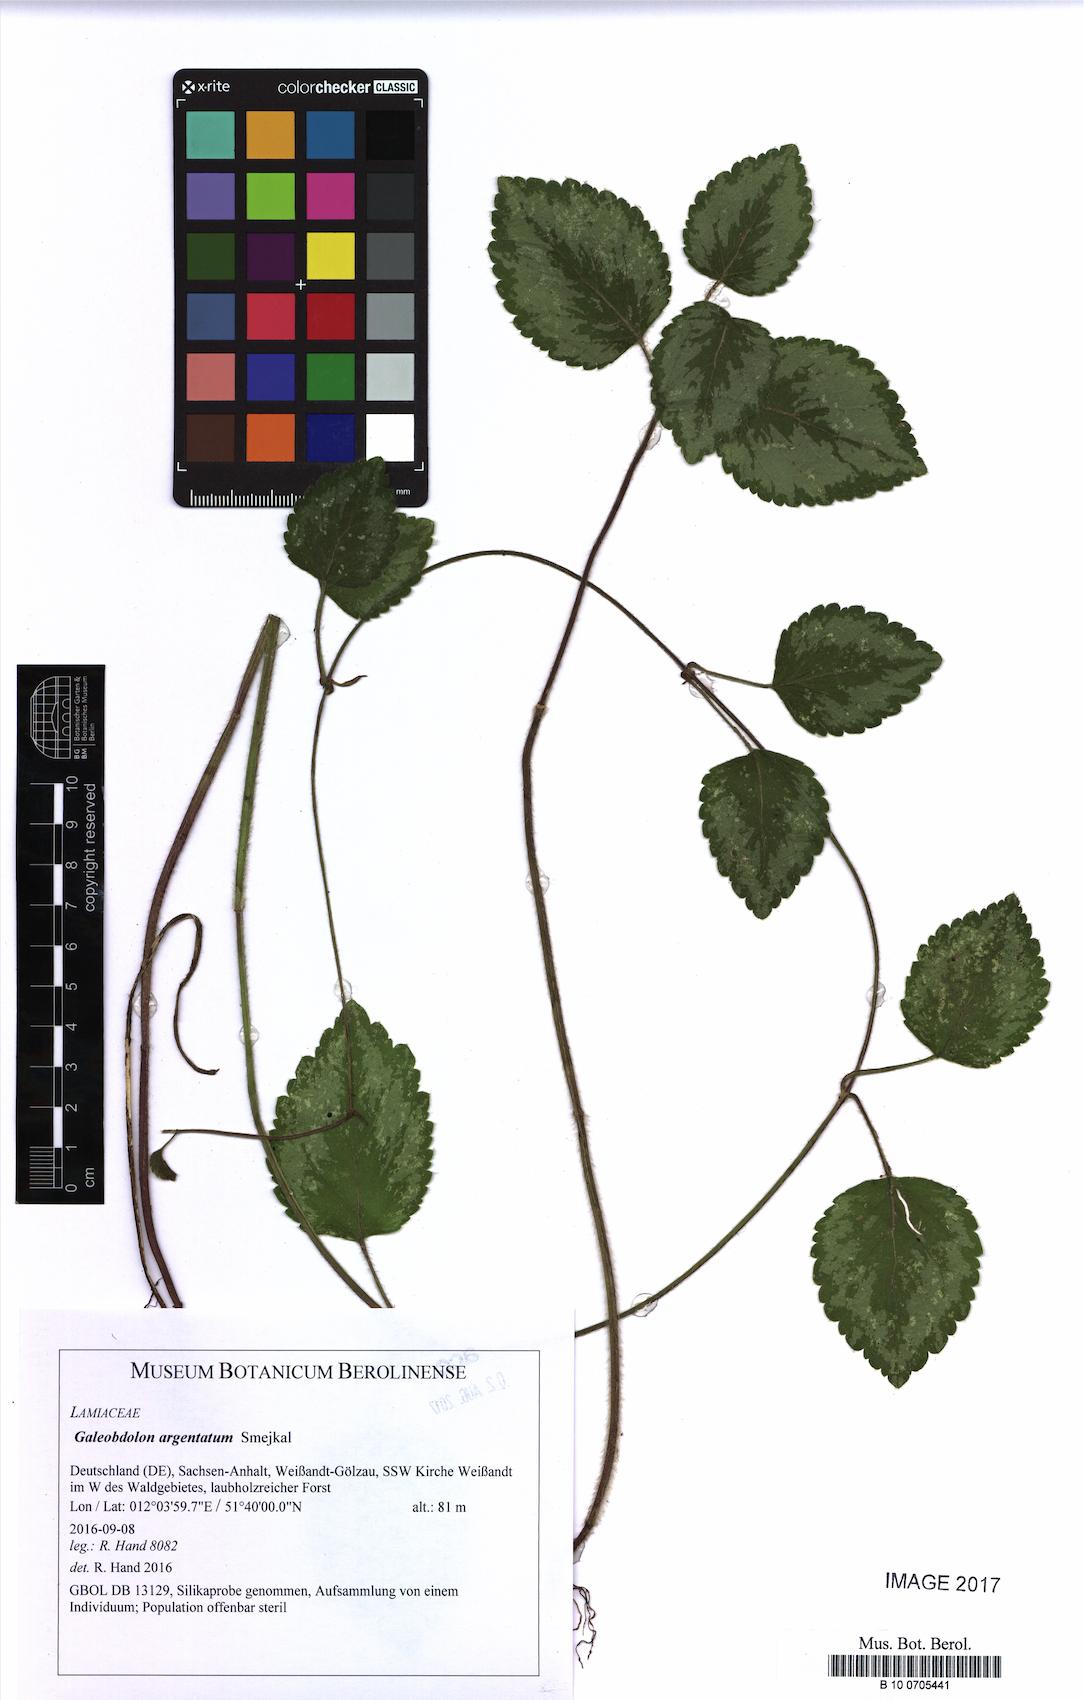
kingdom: Plantae
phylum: Tracheophyta
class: Magnoliopsida
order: Lamiales
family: Lamiaceae
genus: Lamium
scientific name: Lamium galeobdolon
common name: Yellow archangel
